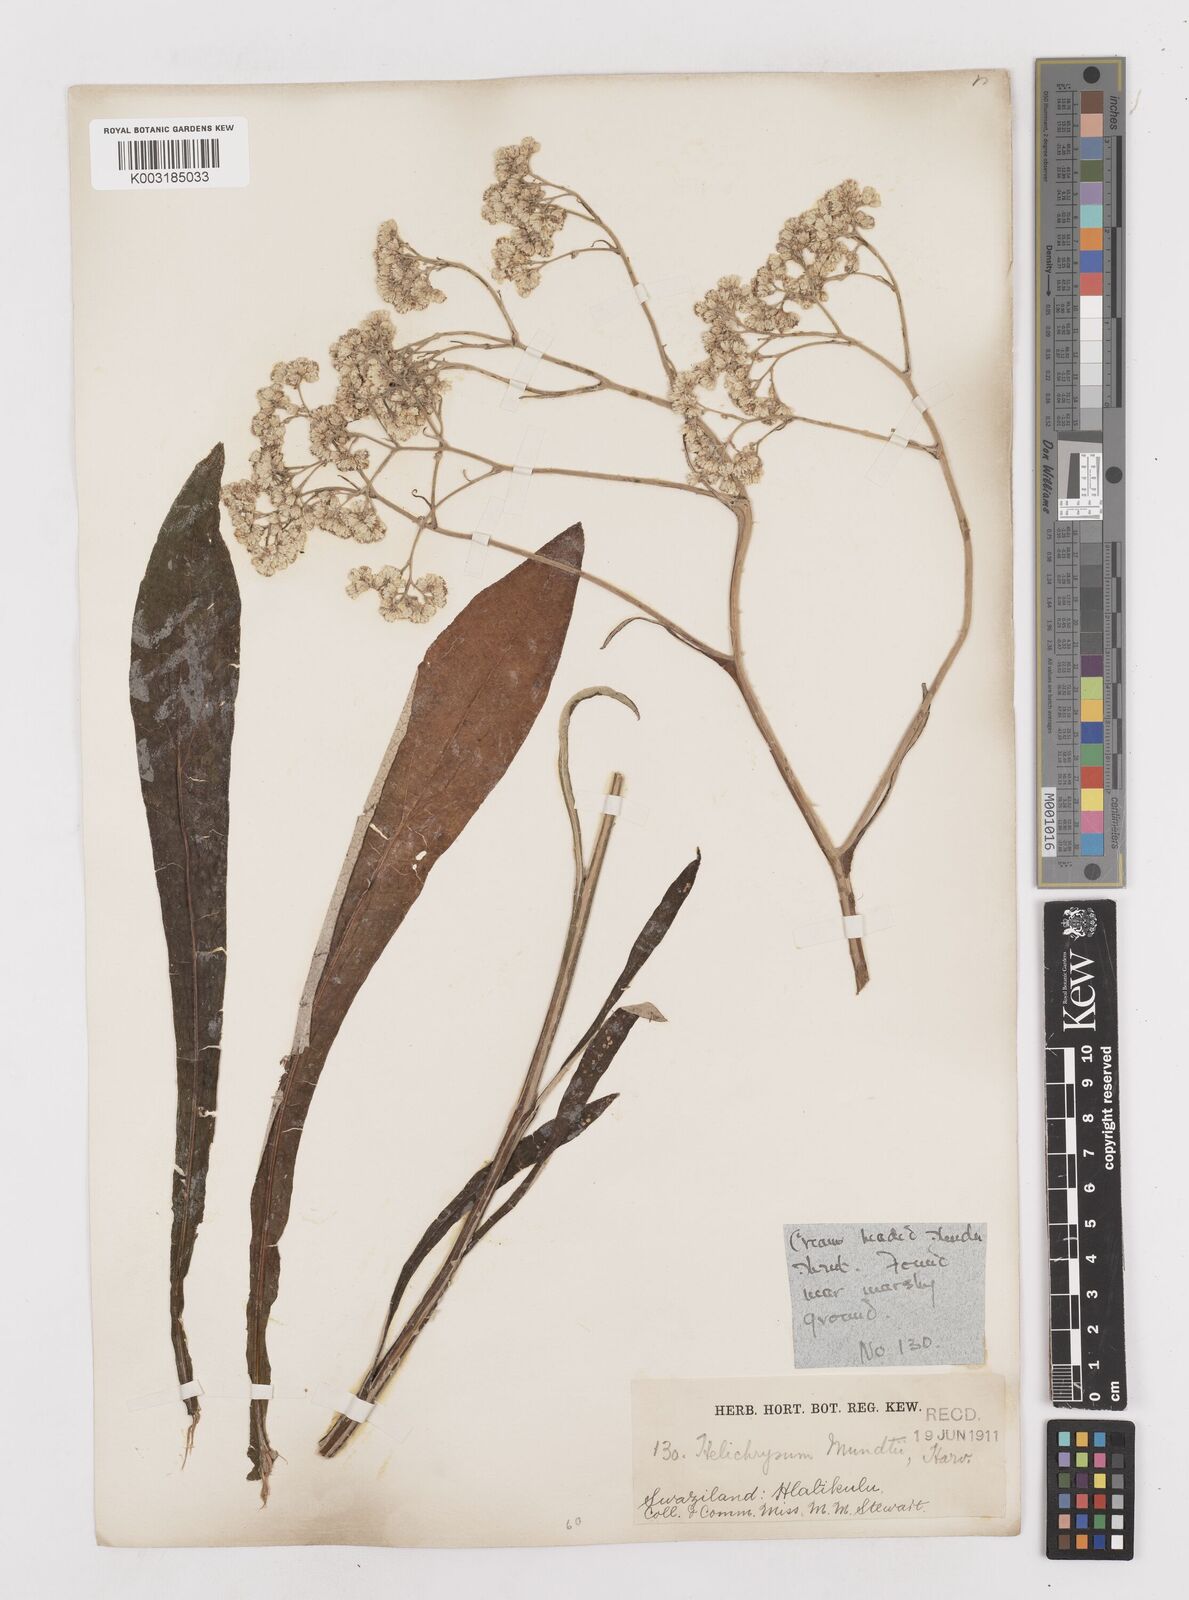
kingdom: Plantae
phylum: Tracheophyta
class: Magnoliopsida
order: Asterales
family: Asteraceae
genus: Helichrysum
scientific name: Helichrysum mundii
